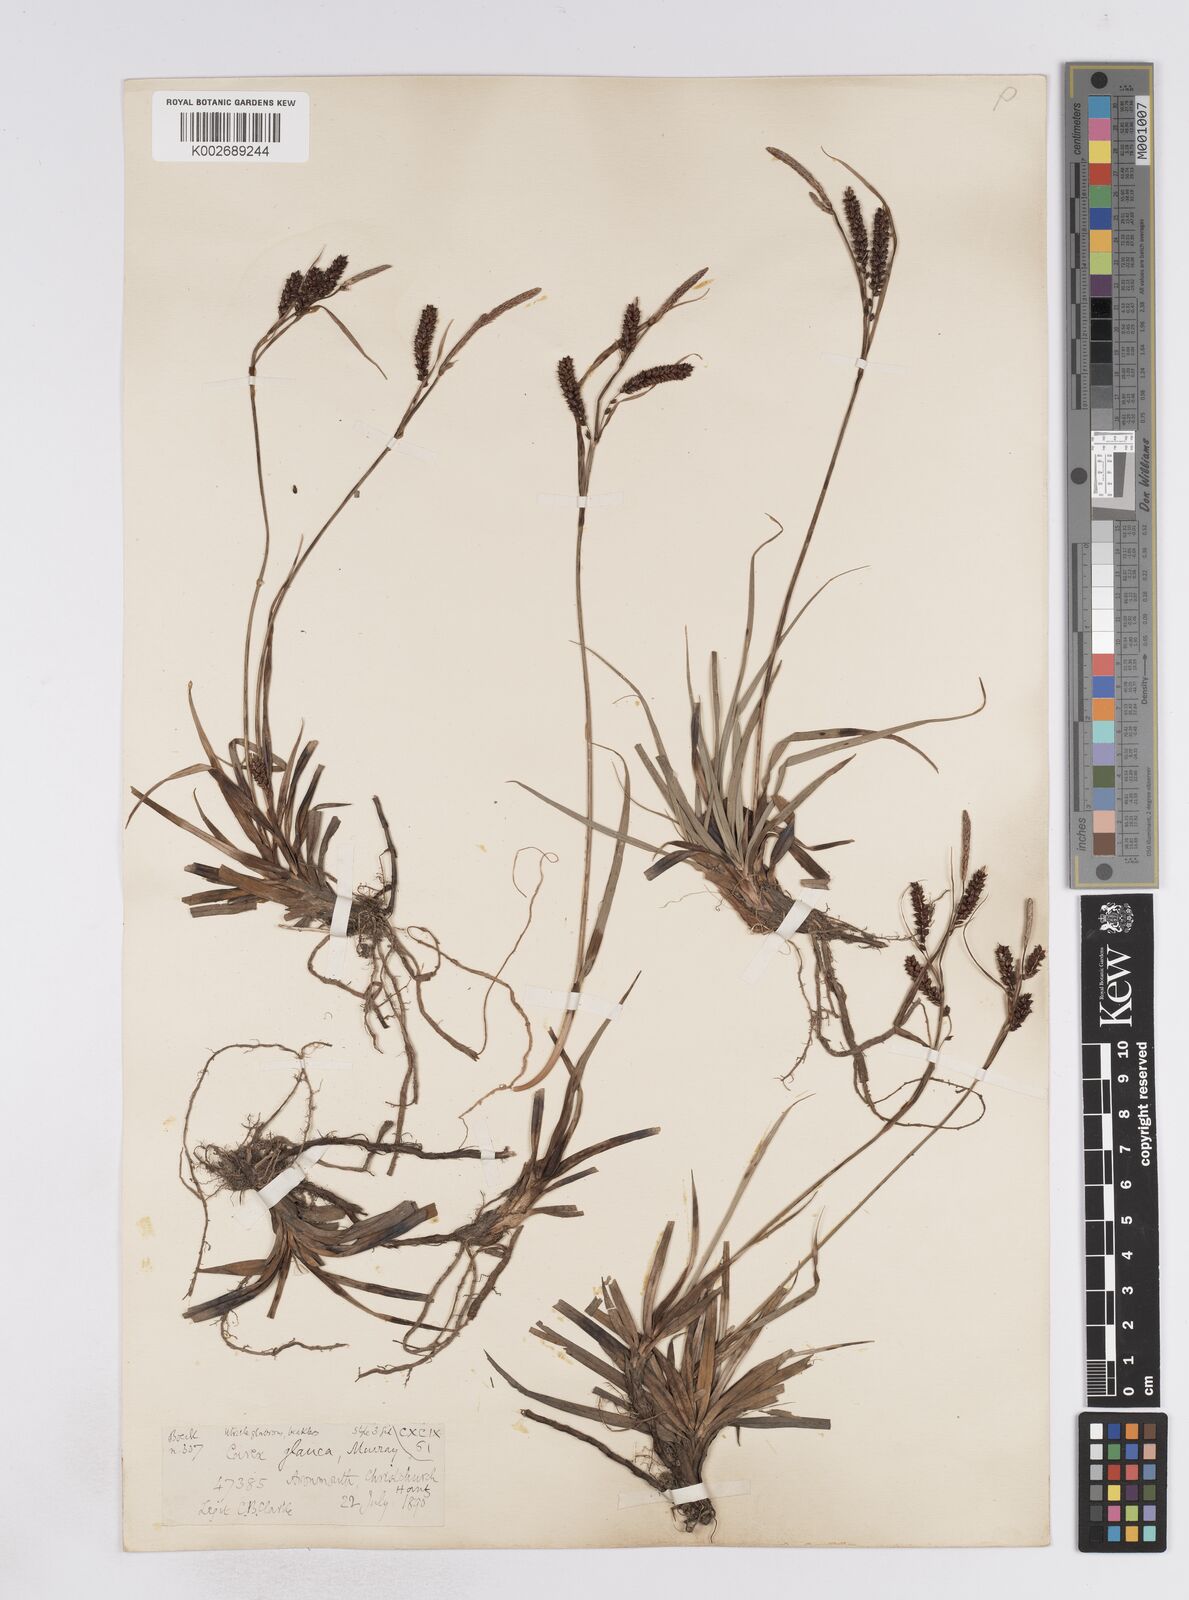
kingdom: Plantae
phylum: Tracheophyta
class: Liliopsida
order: Poales
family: Cyperaceae
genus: Carex
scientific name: Carex flacca
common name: Glaucous sedge
